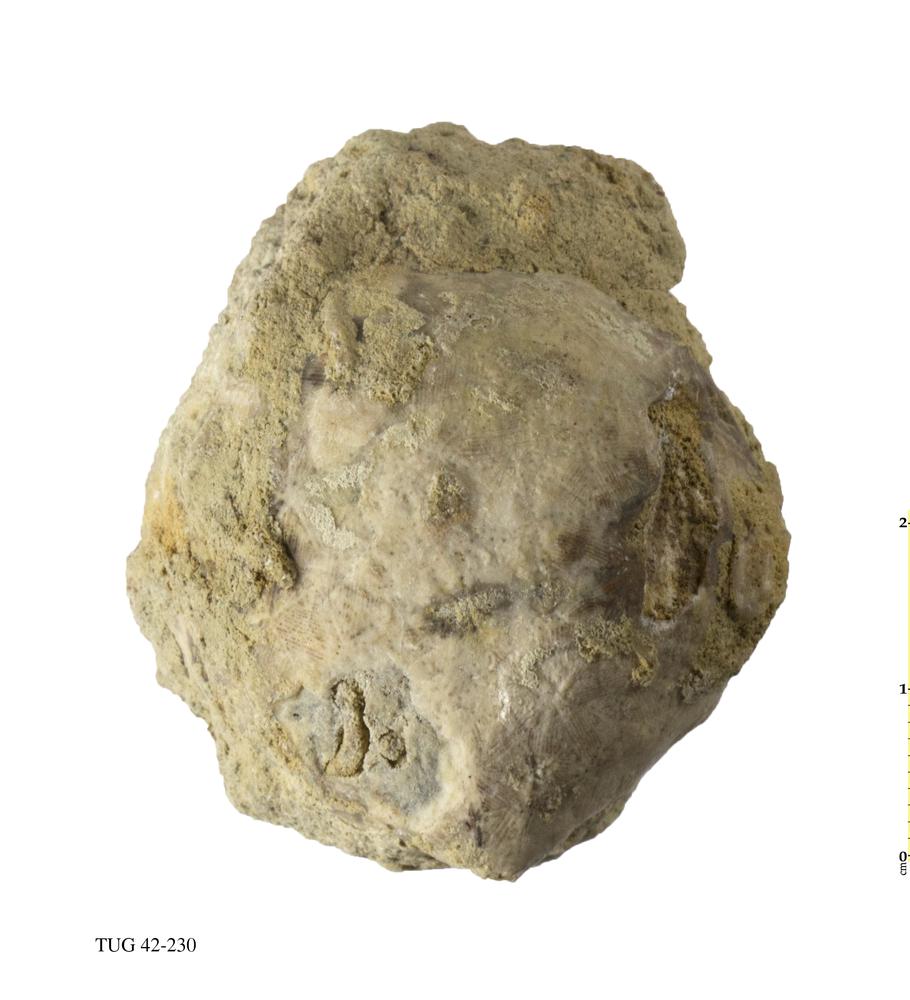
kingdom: Animalia
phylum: Echinodermata
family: Caryocystitidae
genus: Heliocrinites
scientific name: Heliocrinites
